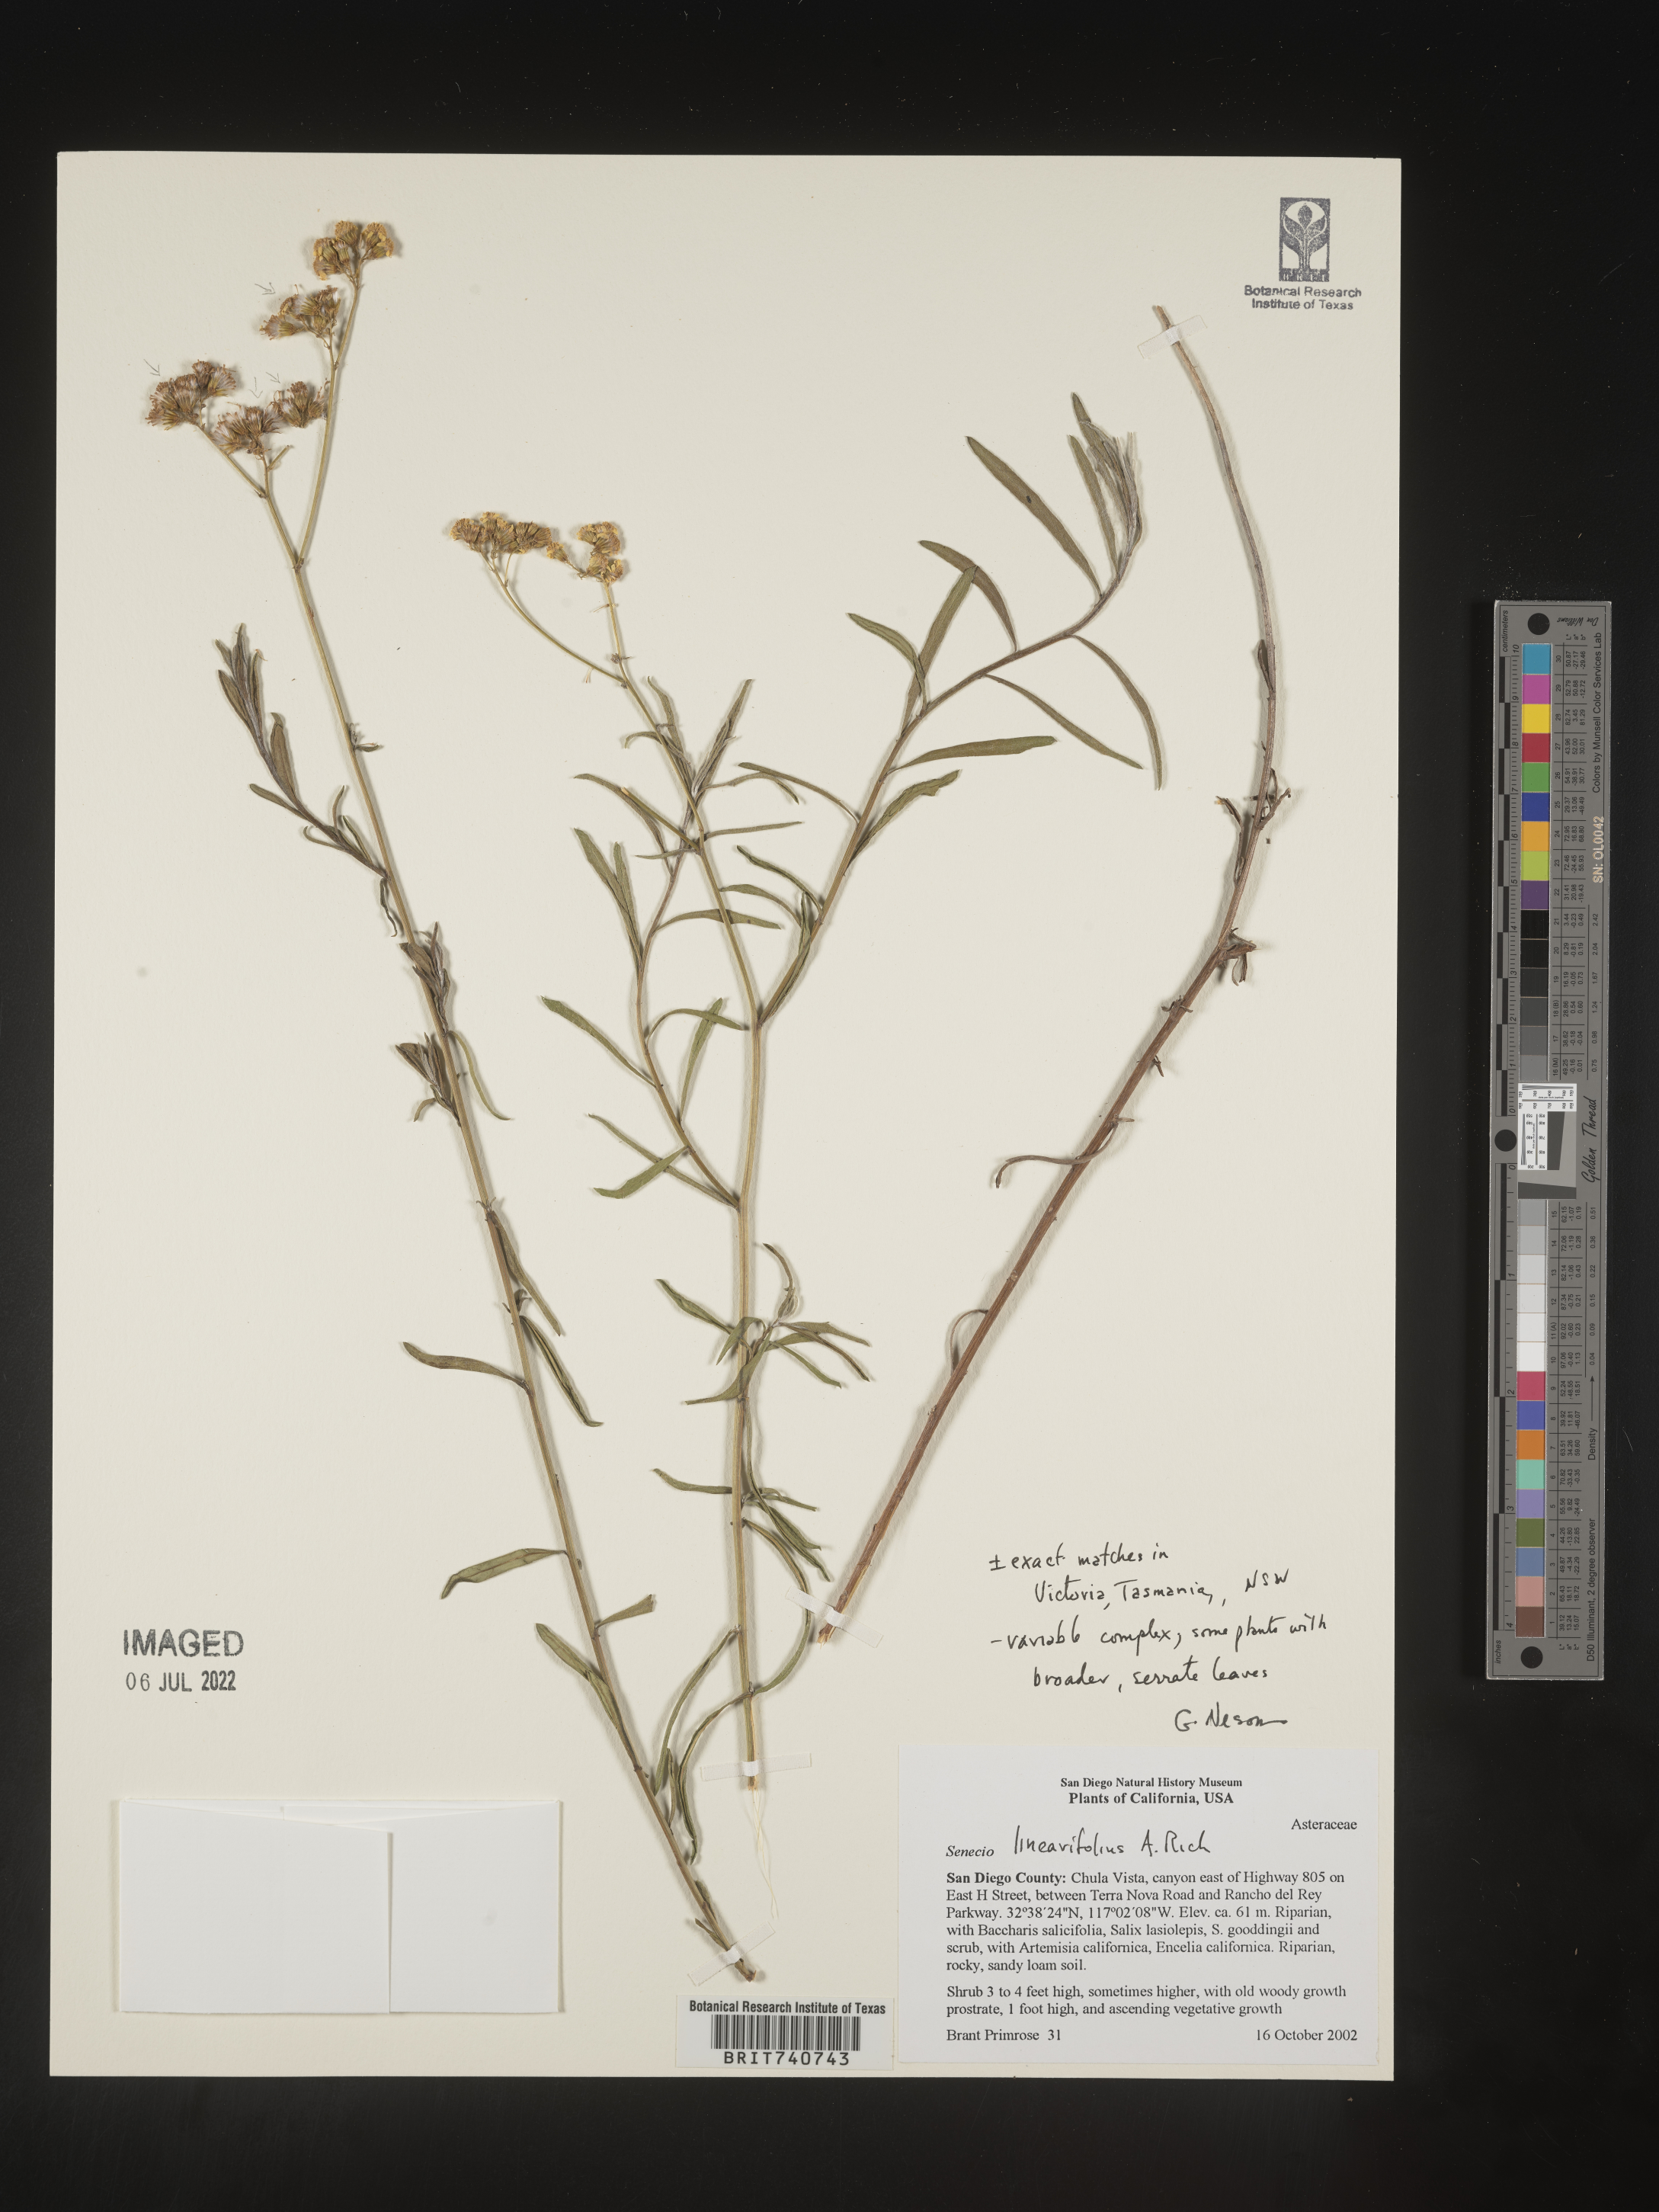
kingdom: Plantae
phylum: Tracheophyta
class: Magnoliopsida
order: Asterales
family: Asteraceae
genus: Senecio
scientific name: Senecio chilensis
